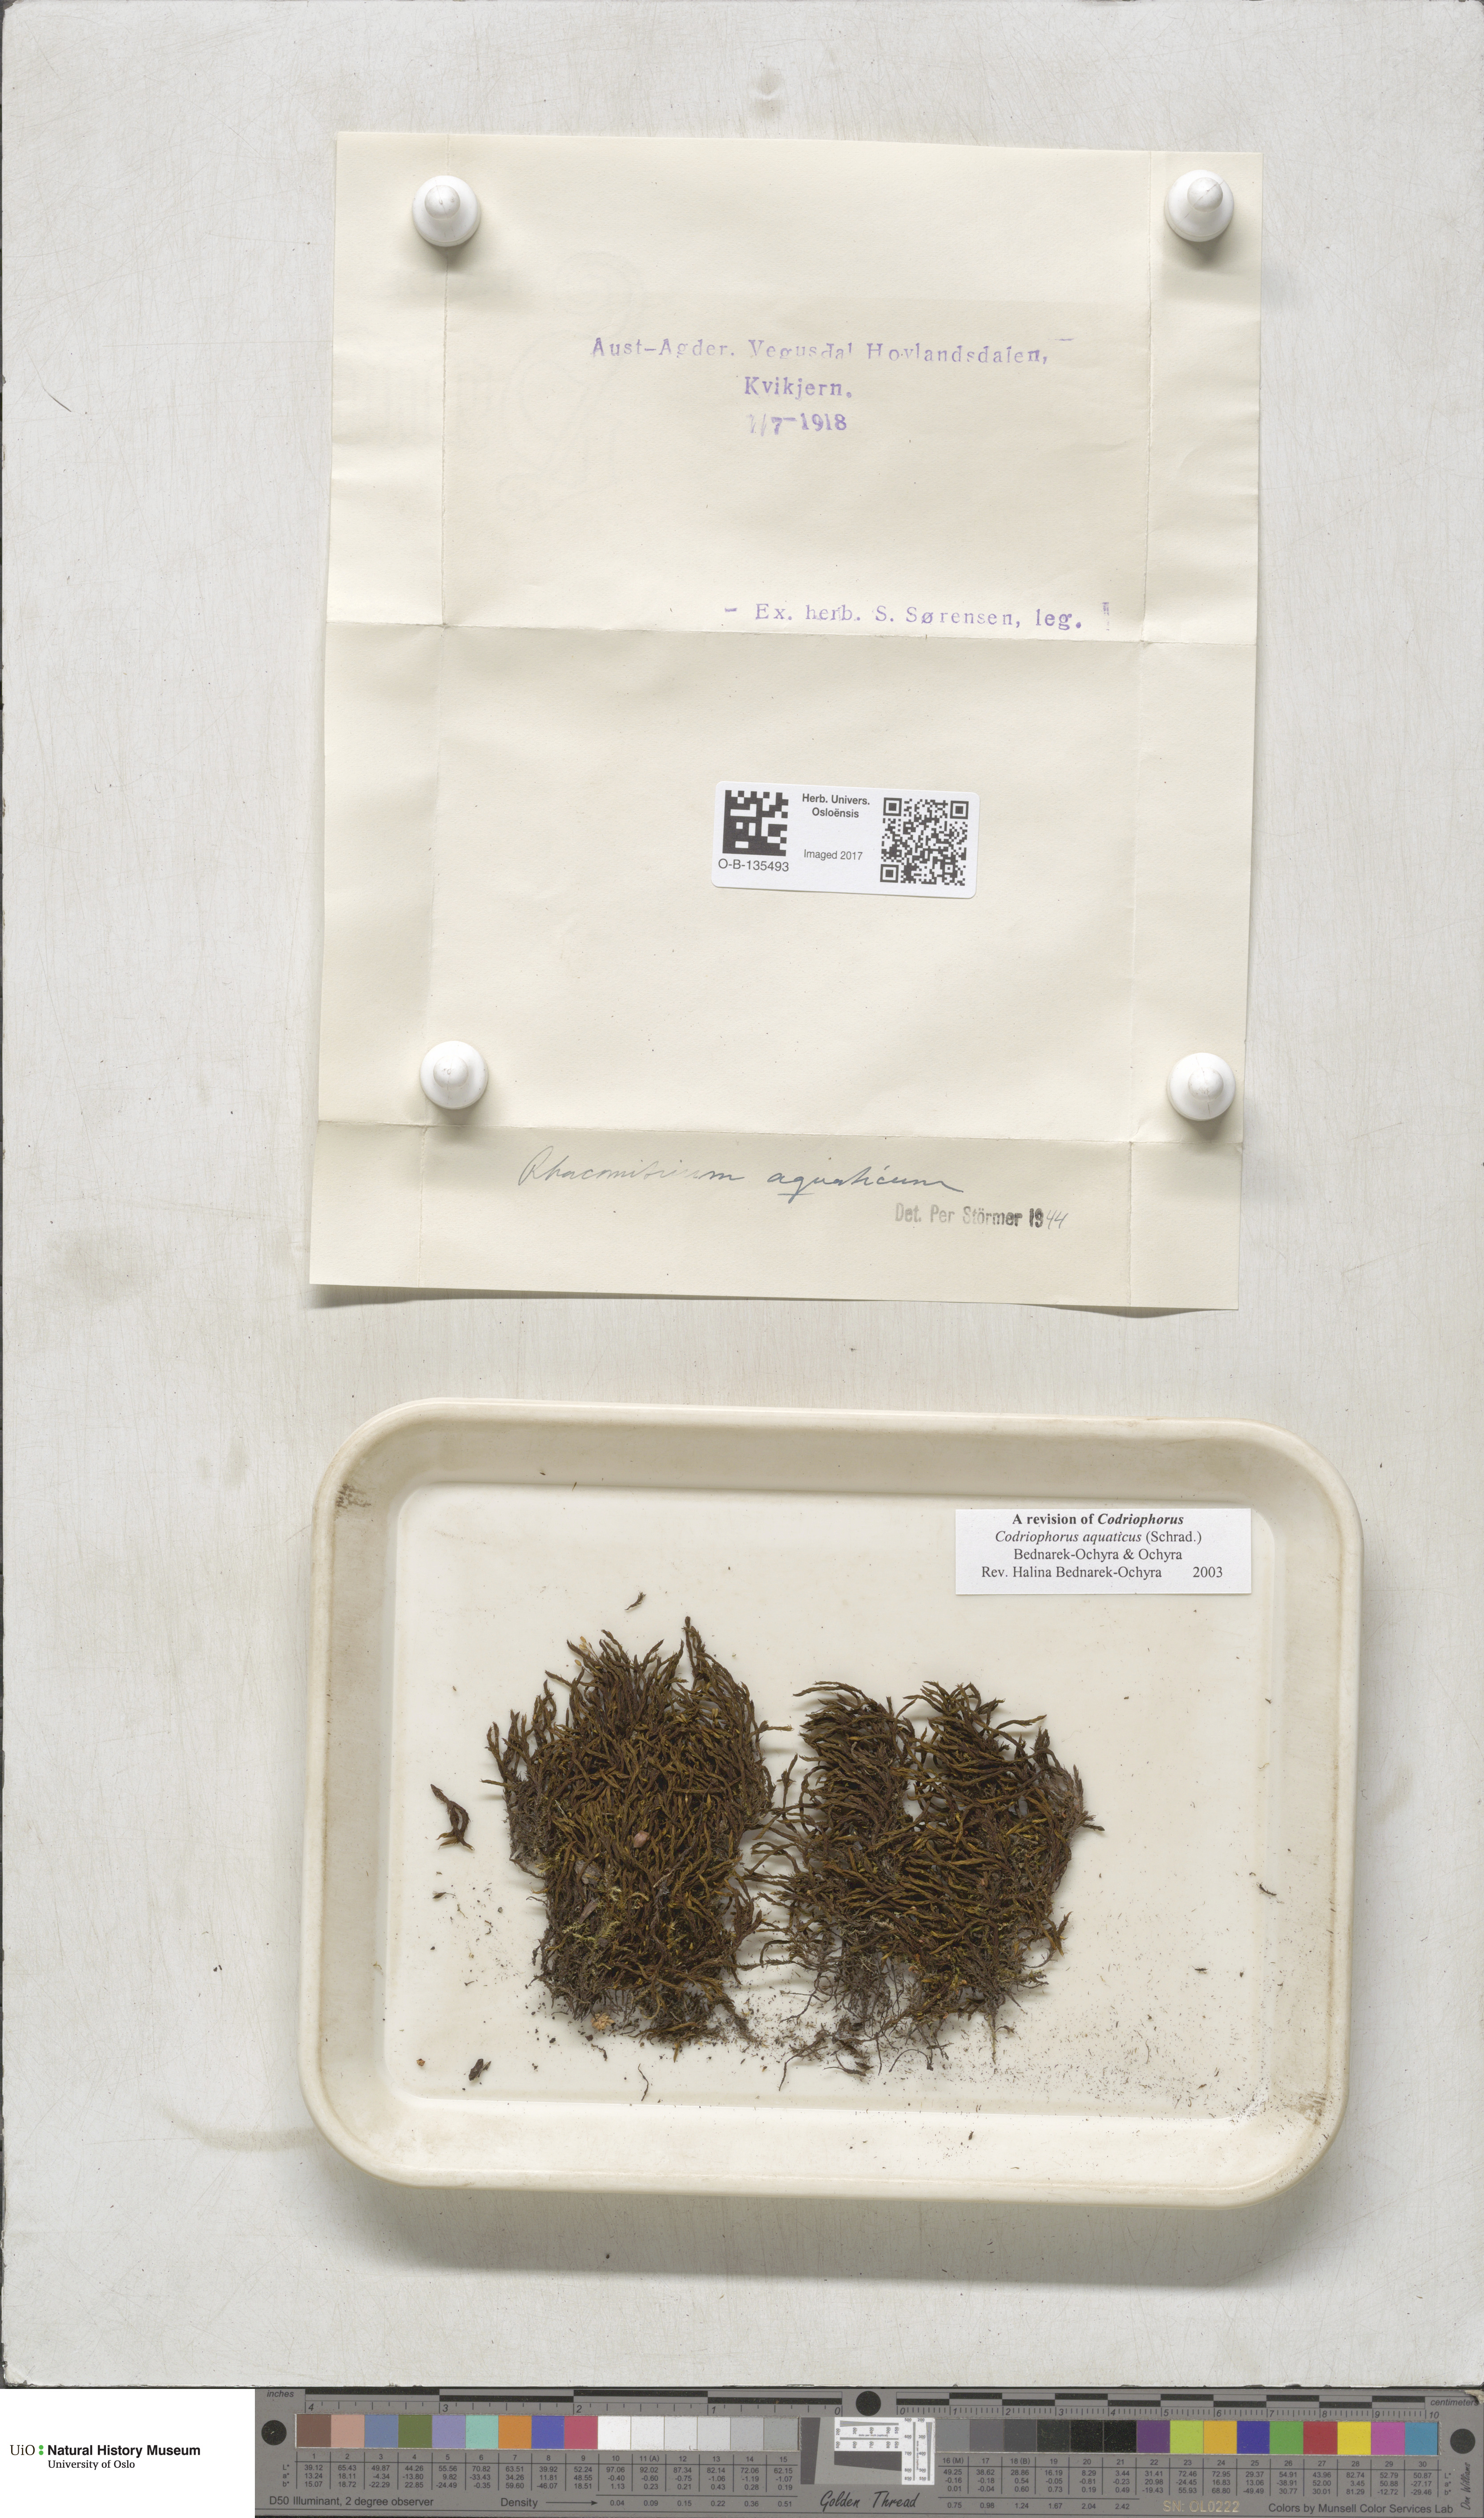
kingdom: Plantae
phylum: Bryophyta
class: Bryopsida
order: Grimmiales
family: Grimmiaceae
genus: Codriophorus
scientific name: Codriophorus aquaticus
